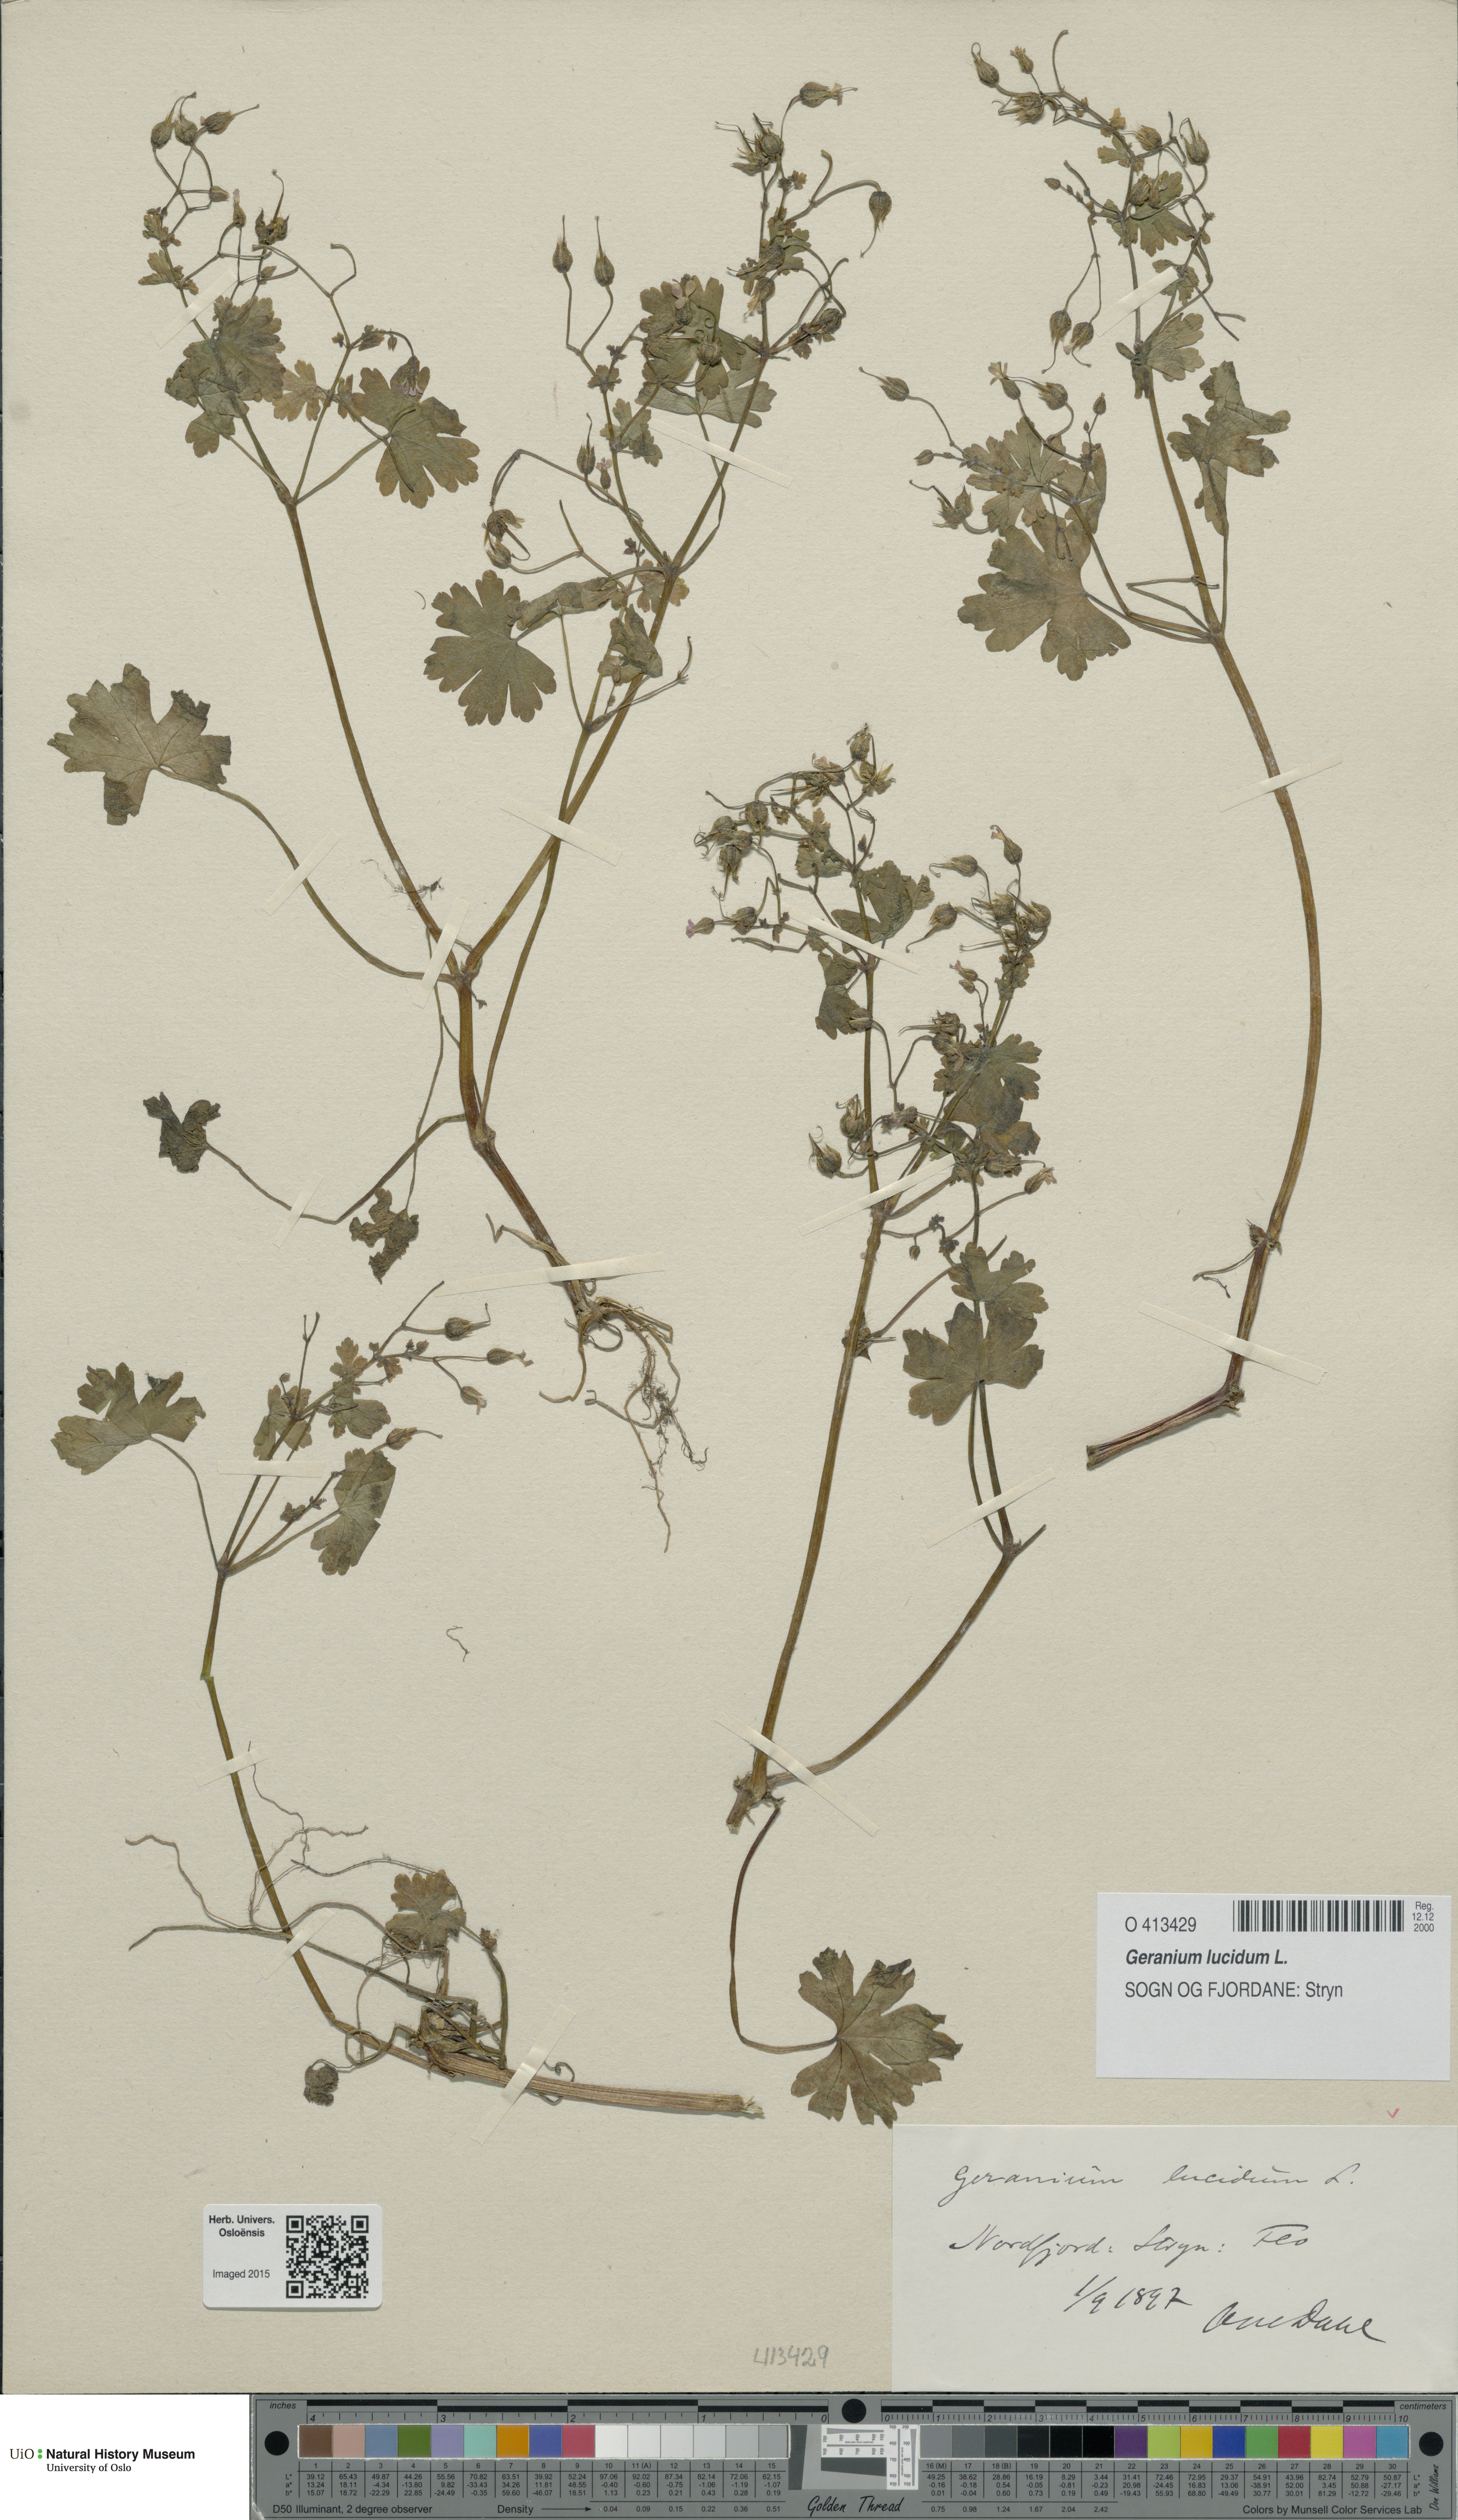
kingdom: Plantae
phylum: Tracheophyta
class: Magnoliopsida
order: Geraniales
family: Geraniaceae
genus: Geranium
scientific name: Geranium lucidum
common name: Shining crane's-bill
